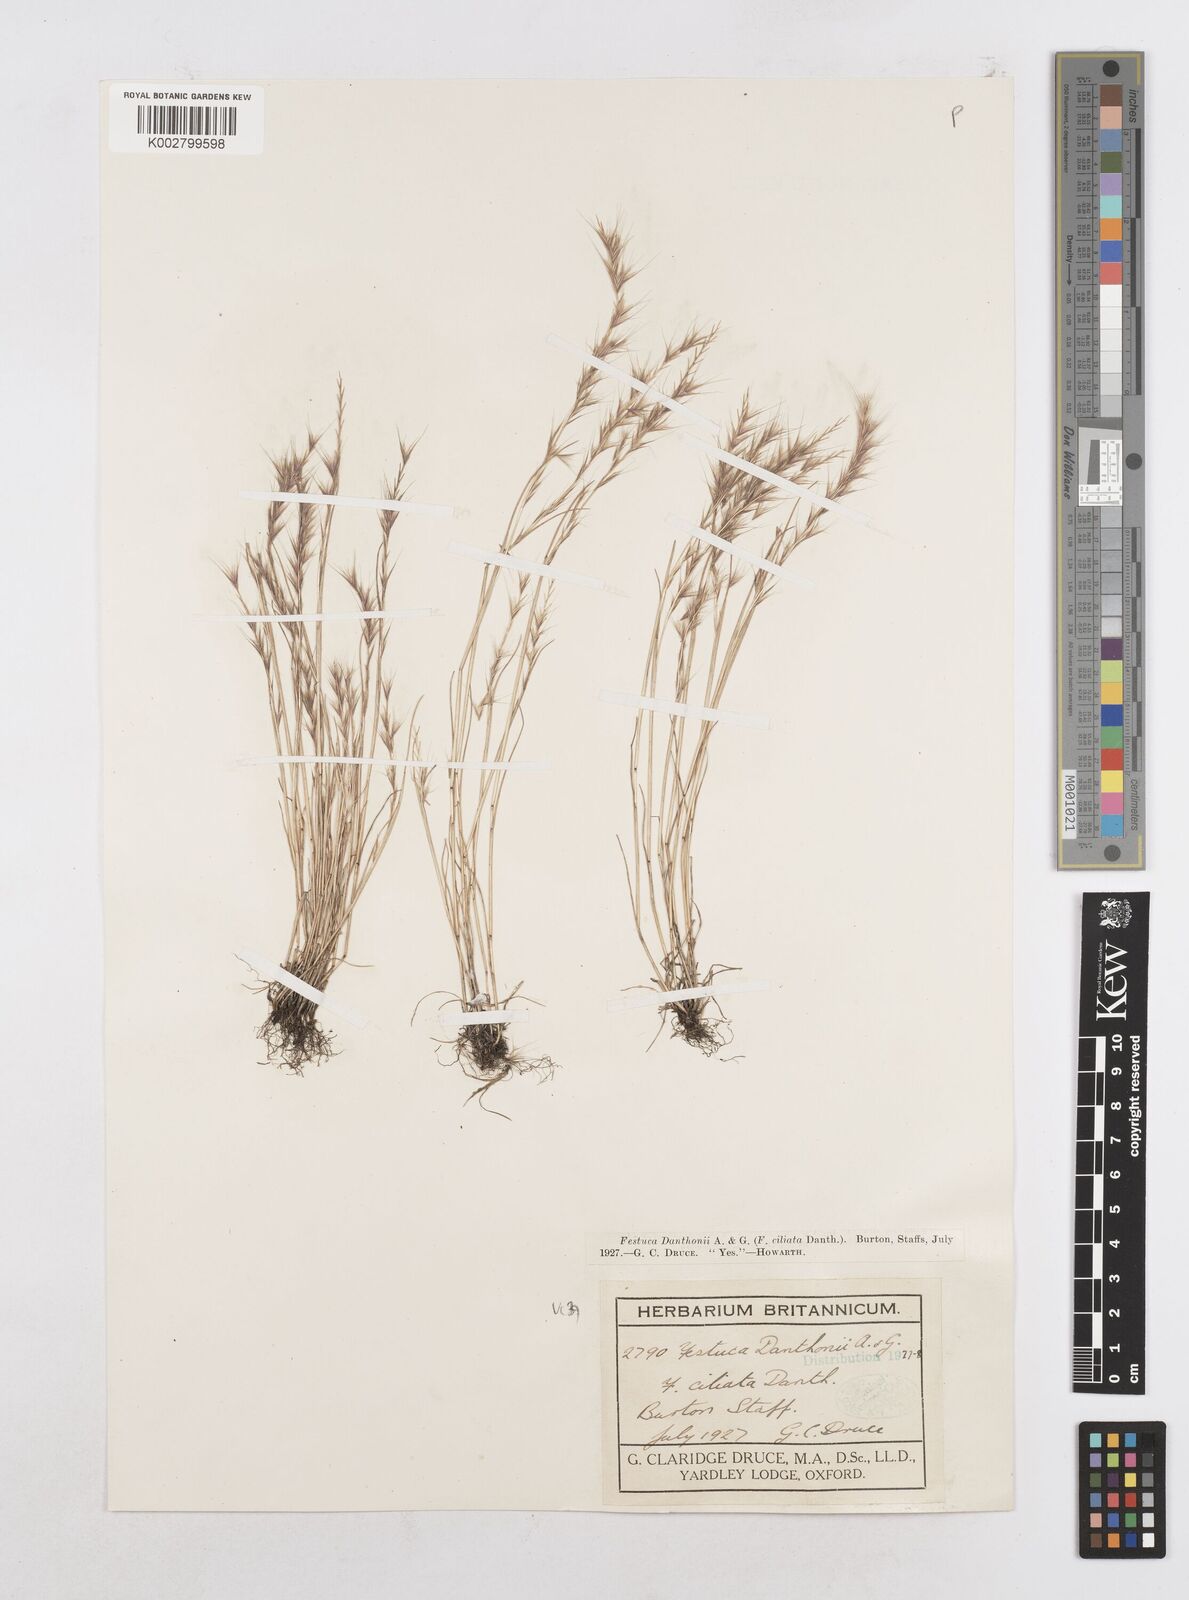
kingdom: Plantae
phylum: Tracheophyta
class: Liliopsida
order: Poales
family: Poaceae
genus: Festuca
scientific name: Festuca
